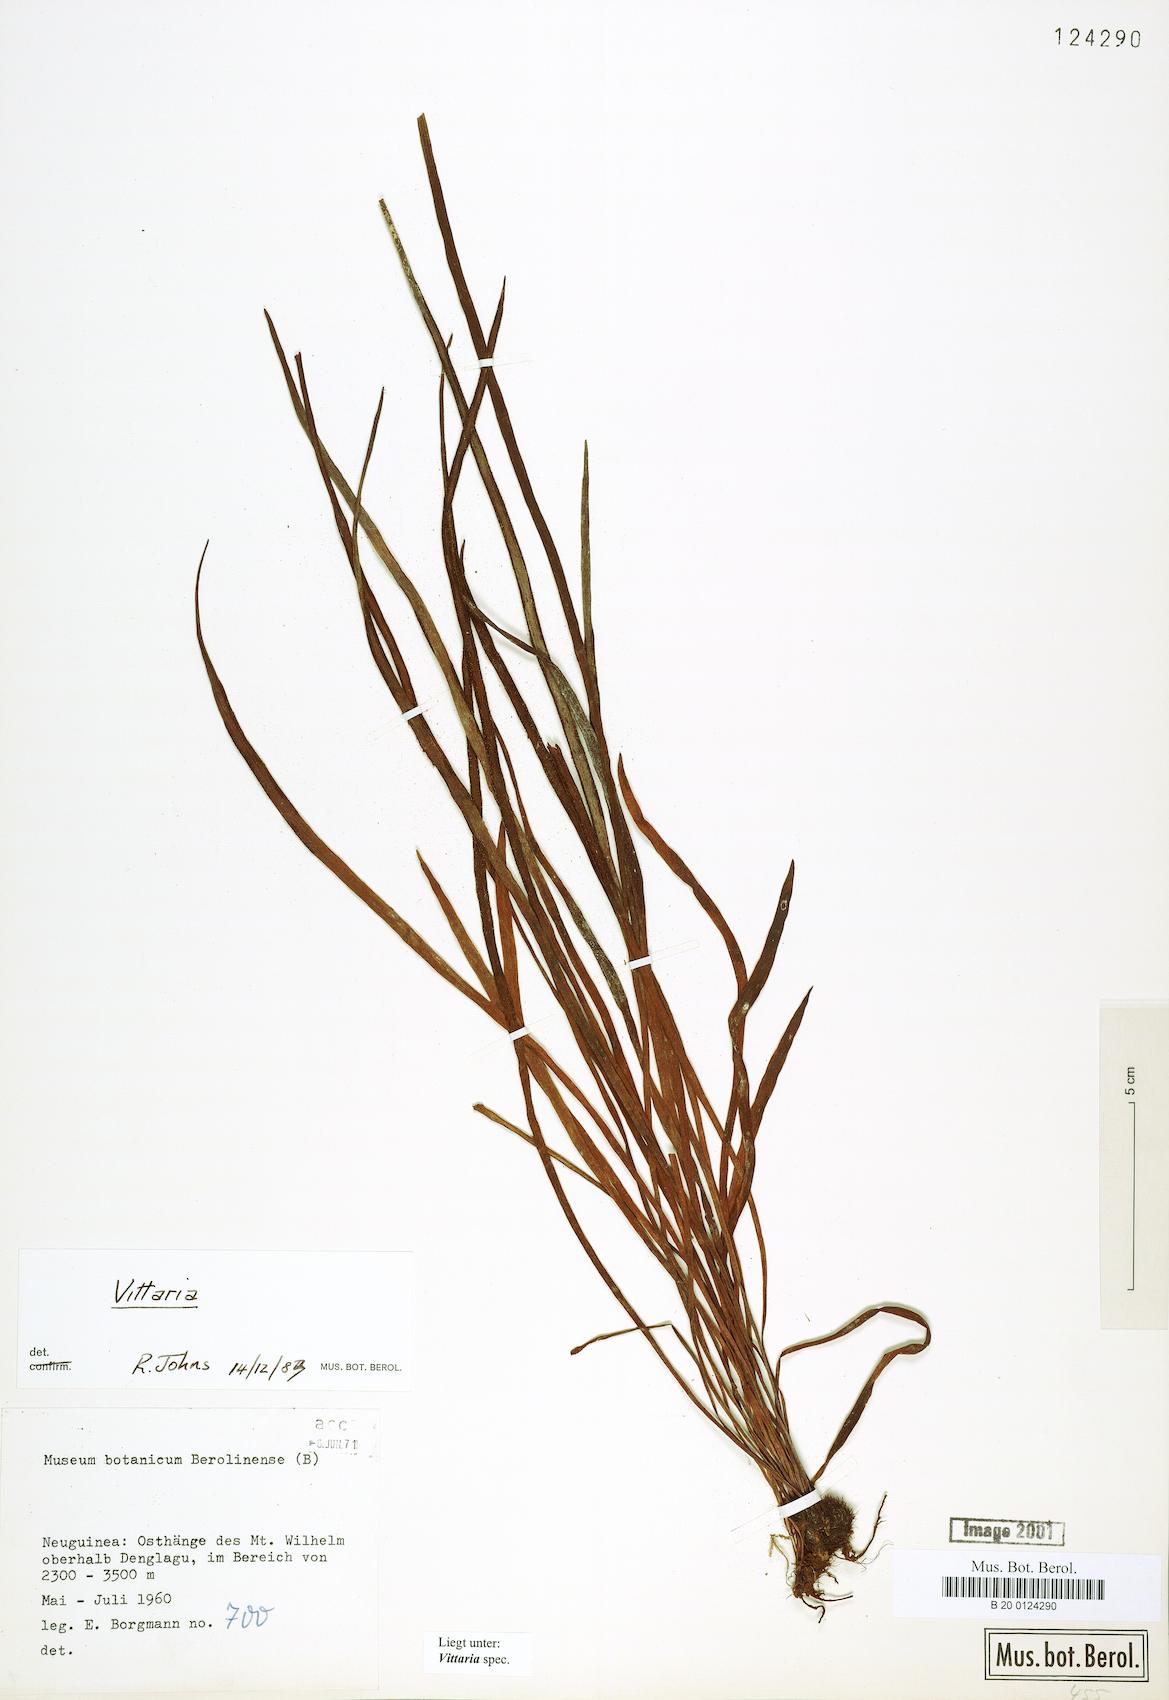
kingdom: Plantae
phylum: Tracheophyta
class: Polypodiopsida
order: Polypodiales
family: Pteridaceae
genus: Vittaria
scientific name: Vittaria
